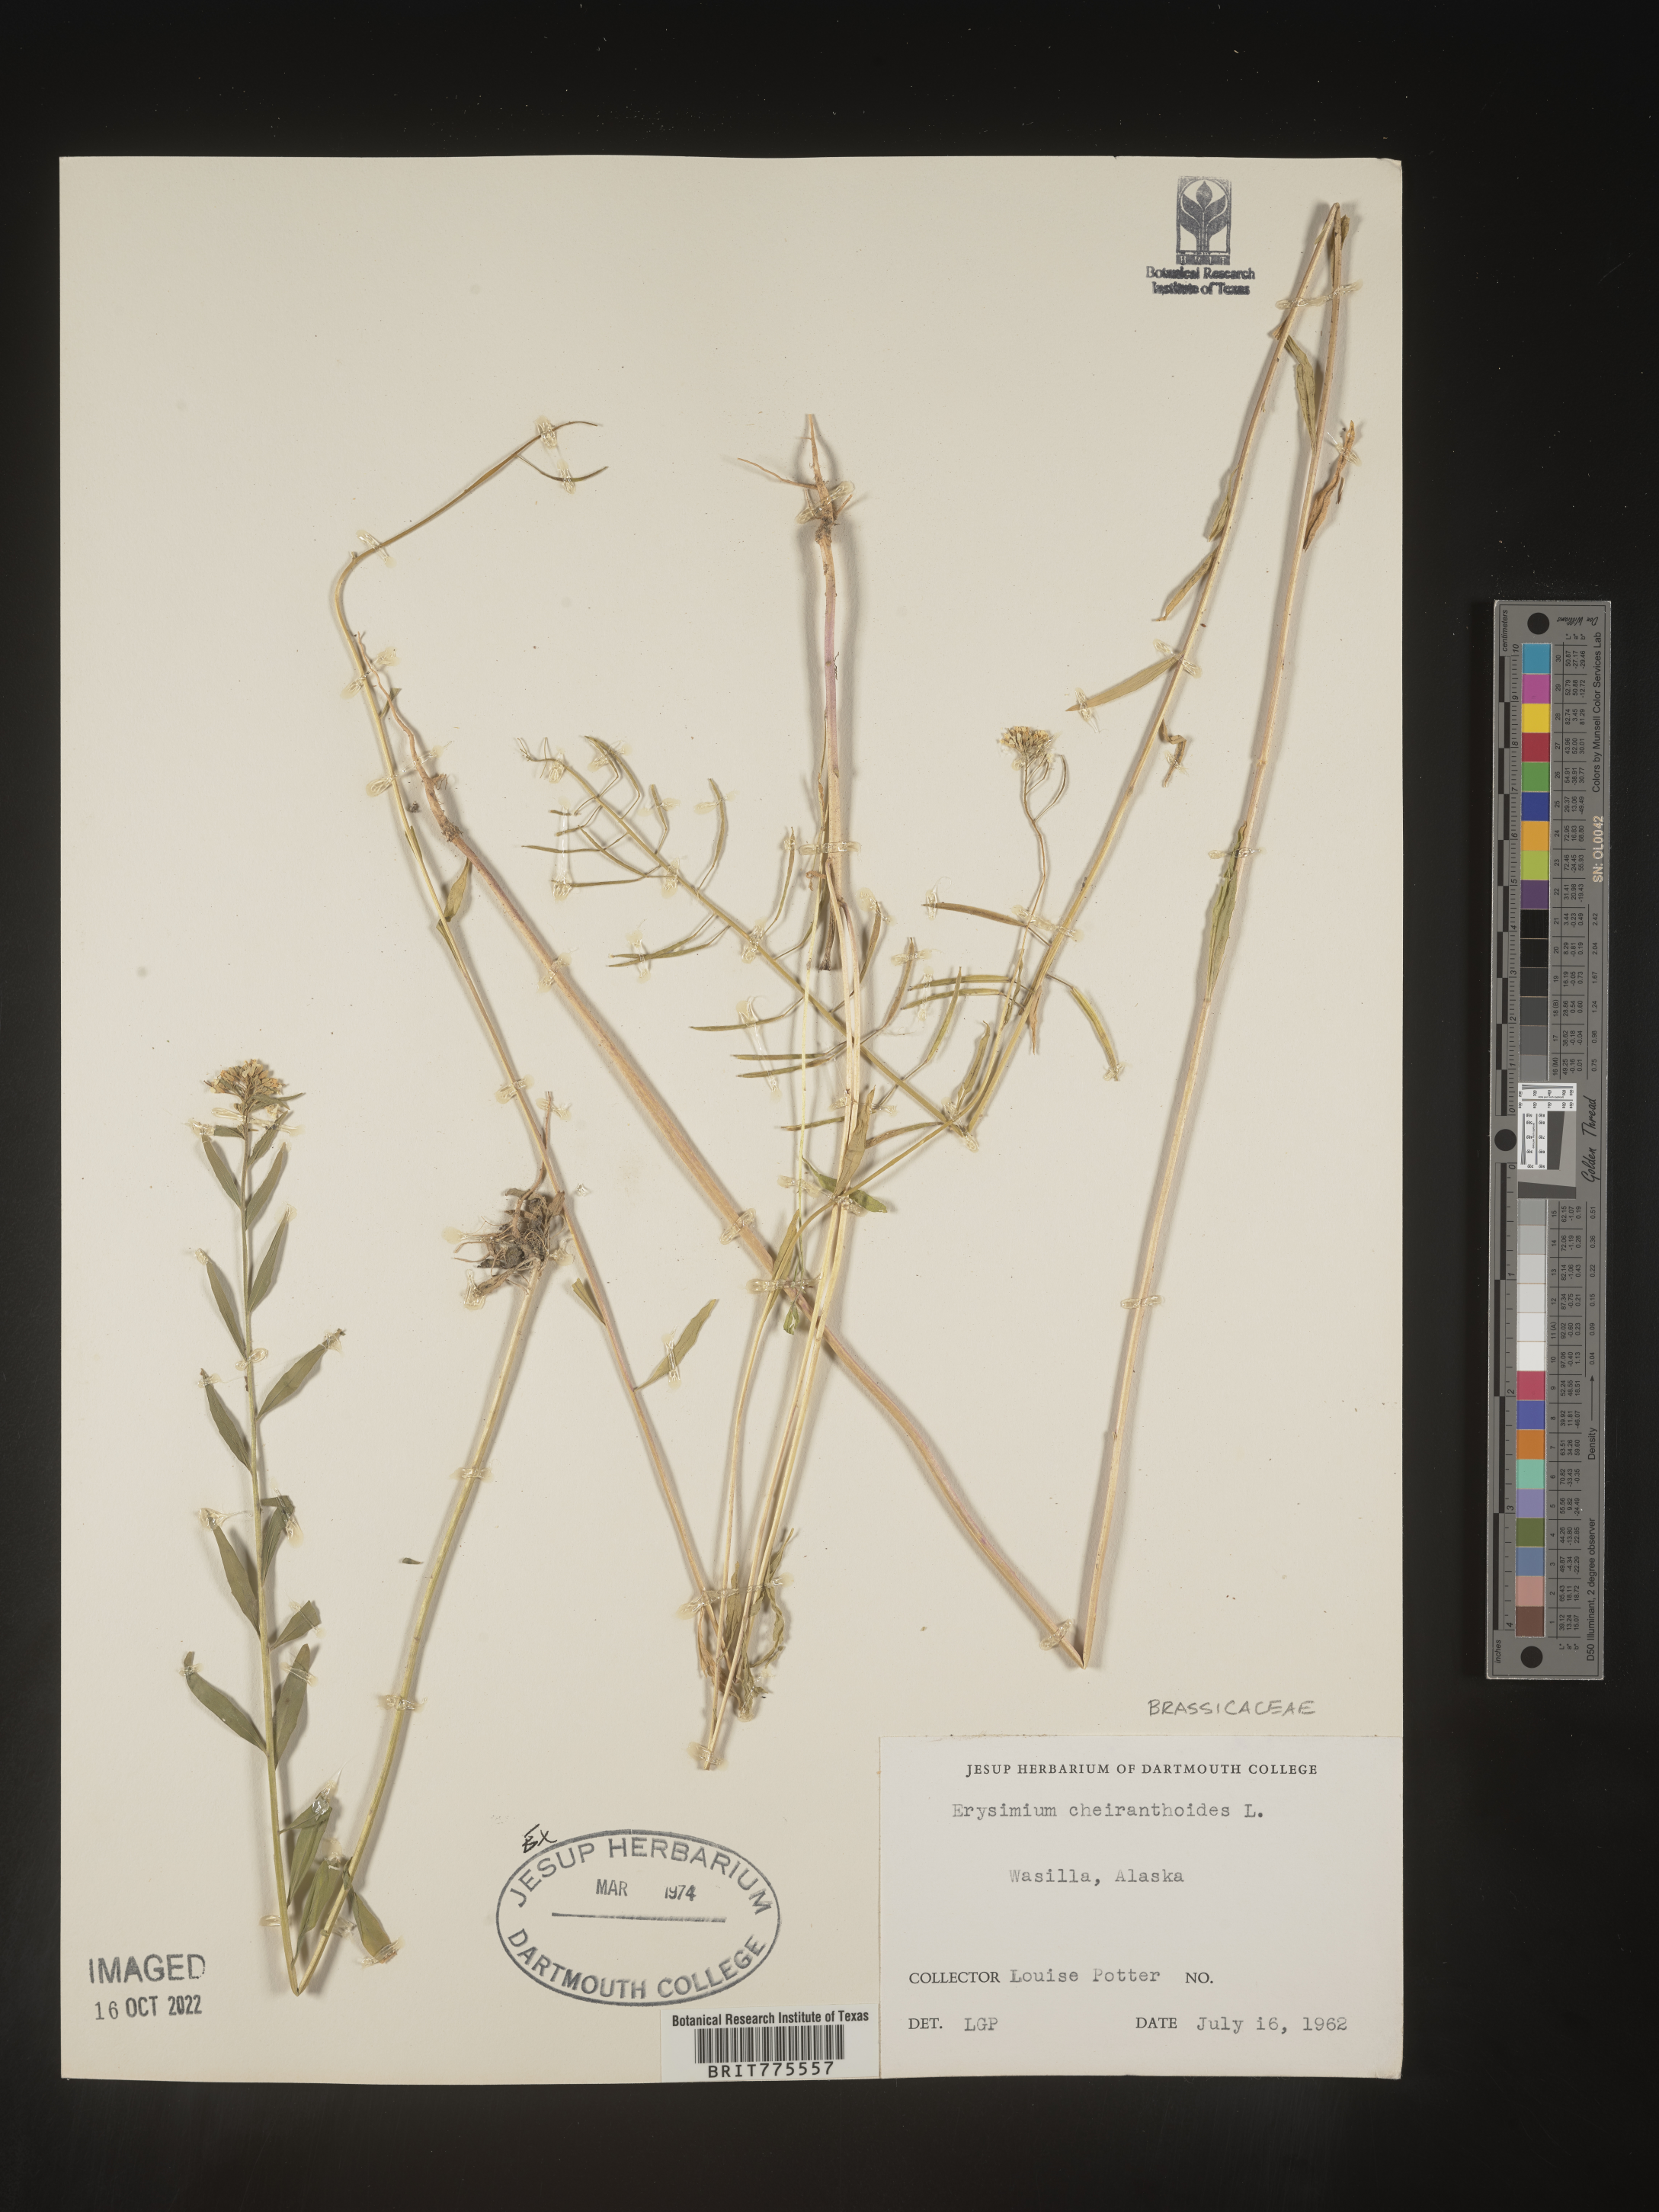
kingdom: Plantae
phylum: Tracheophyta
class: Magnoliopsida
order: Brassicales
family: Brassicaceae
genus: Erysimum
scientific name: Erysimum cheiranthoides
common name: Treacle mustard
